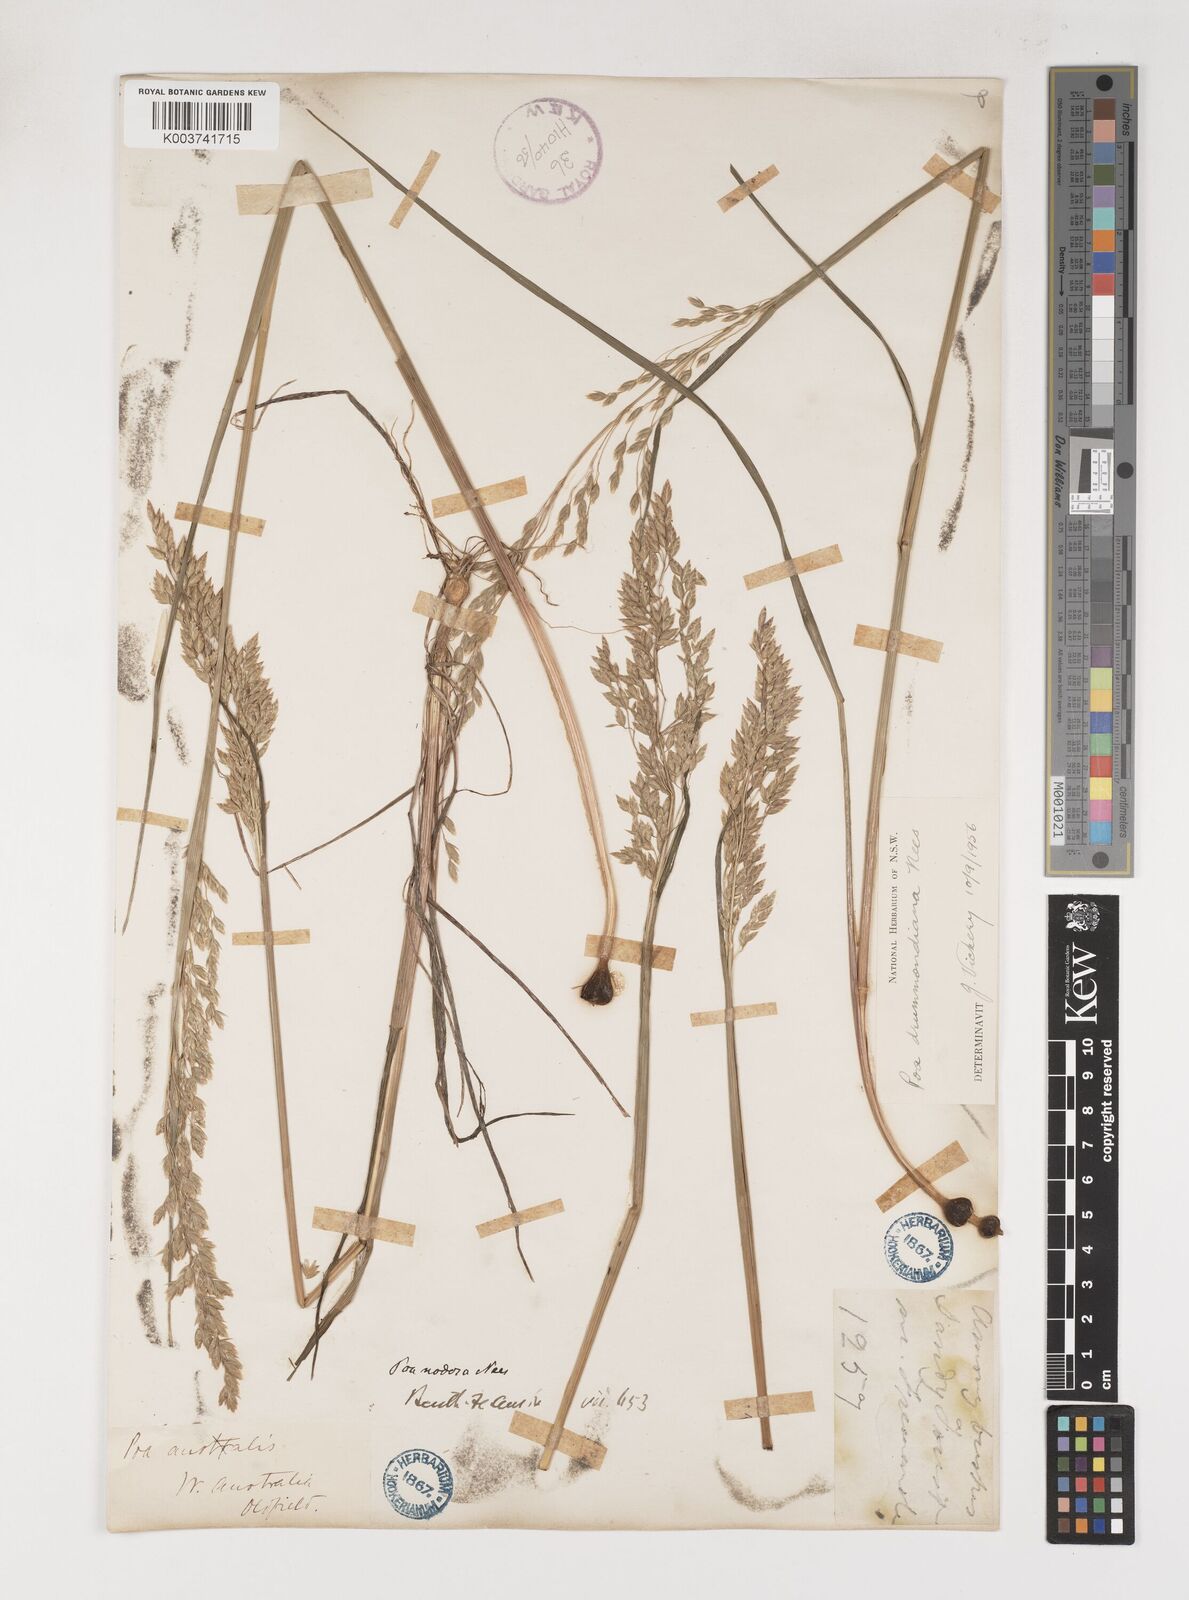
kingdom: Plantae
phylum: Tracheophyta
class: Liliopsida
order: Poales
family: Poaceae
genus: Poa
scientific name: Poa drummondiana
